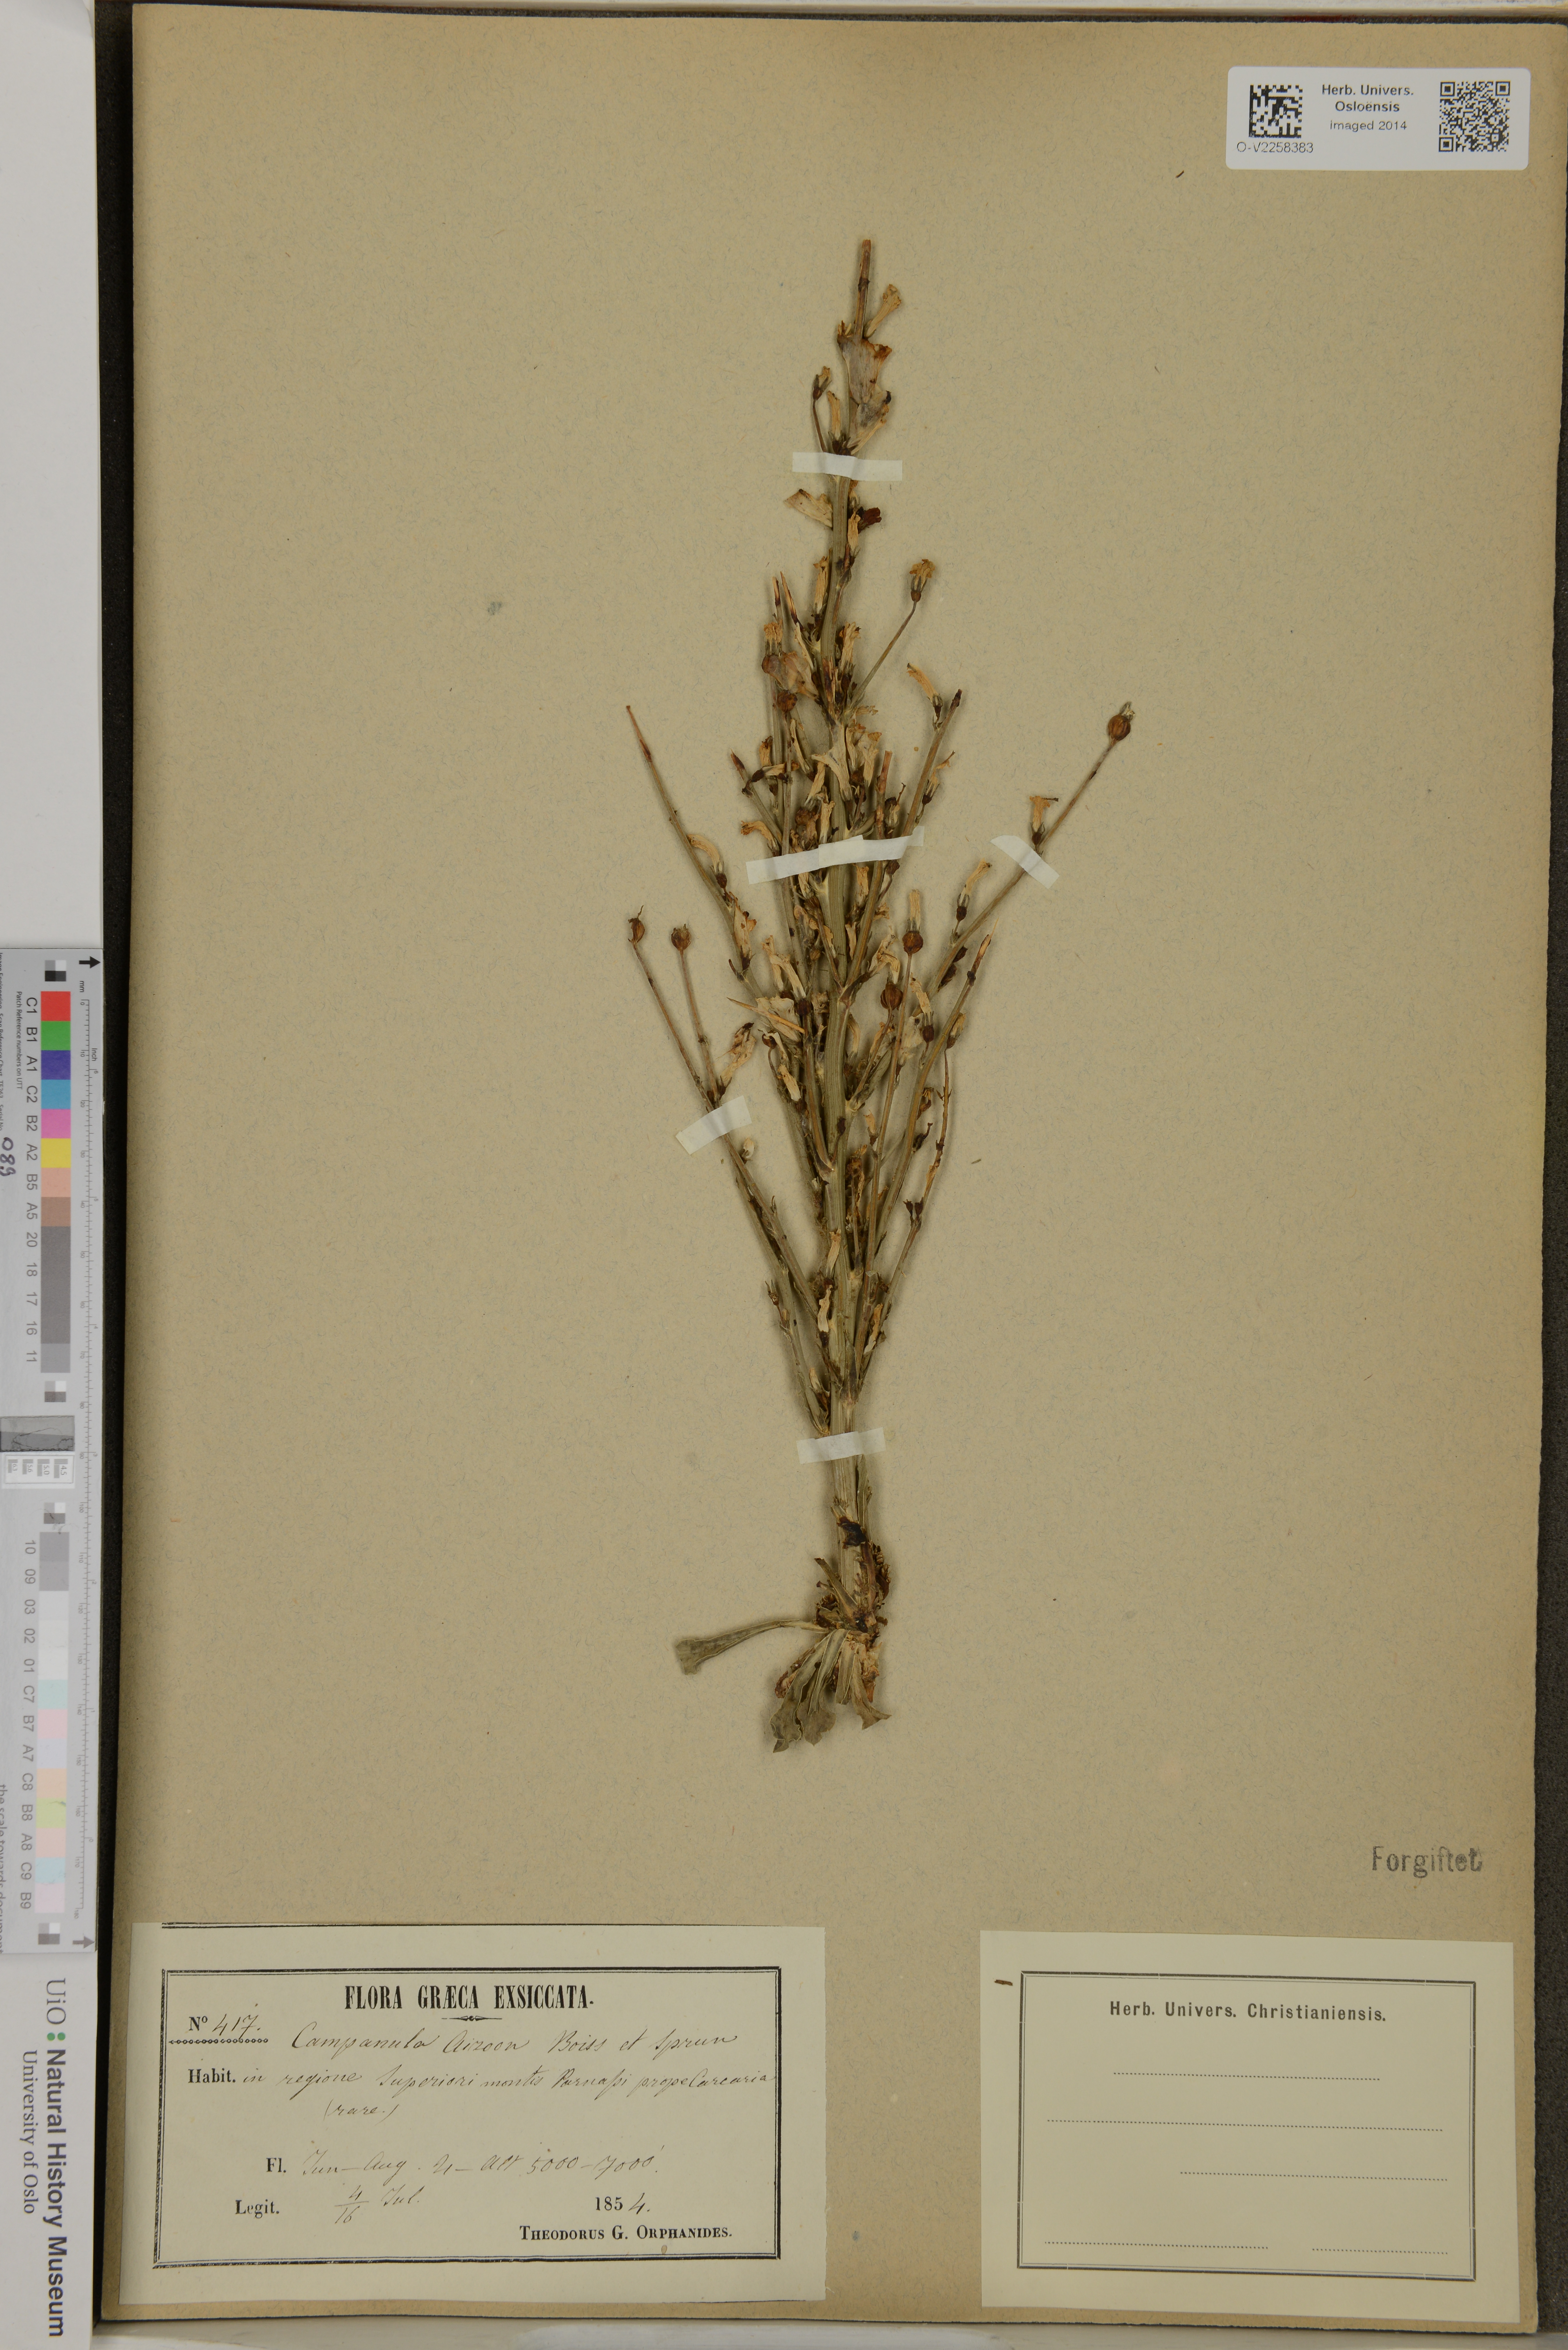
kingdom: Plantae
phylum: Tracheophyta
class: Magnoliopsida
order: Asterales
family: Campanulaceae
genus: Campanula
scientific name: Campanula aizoon
